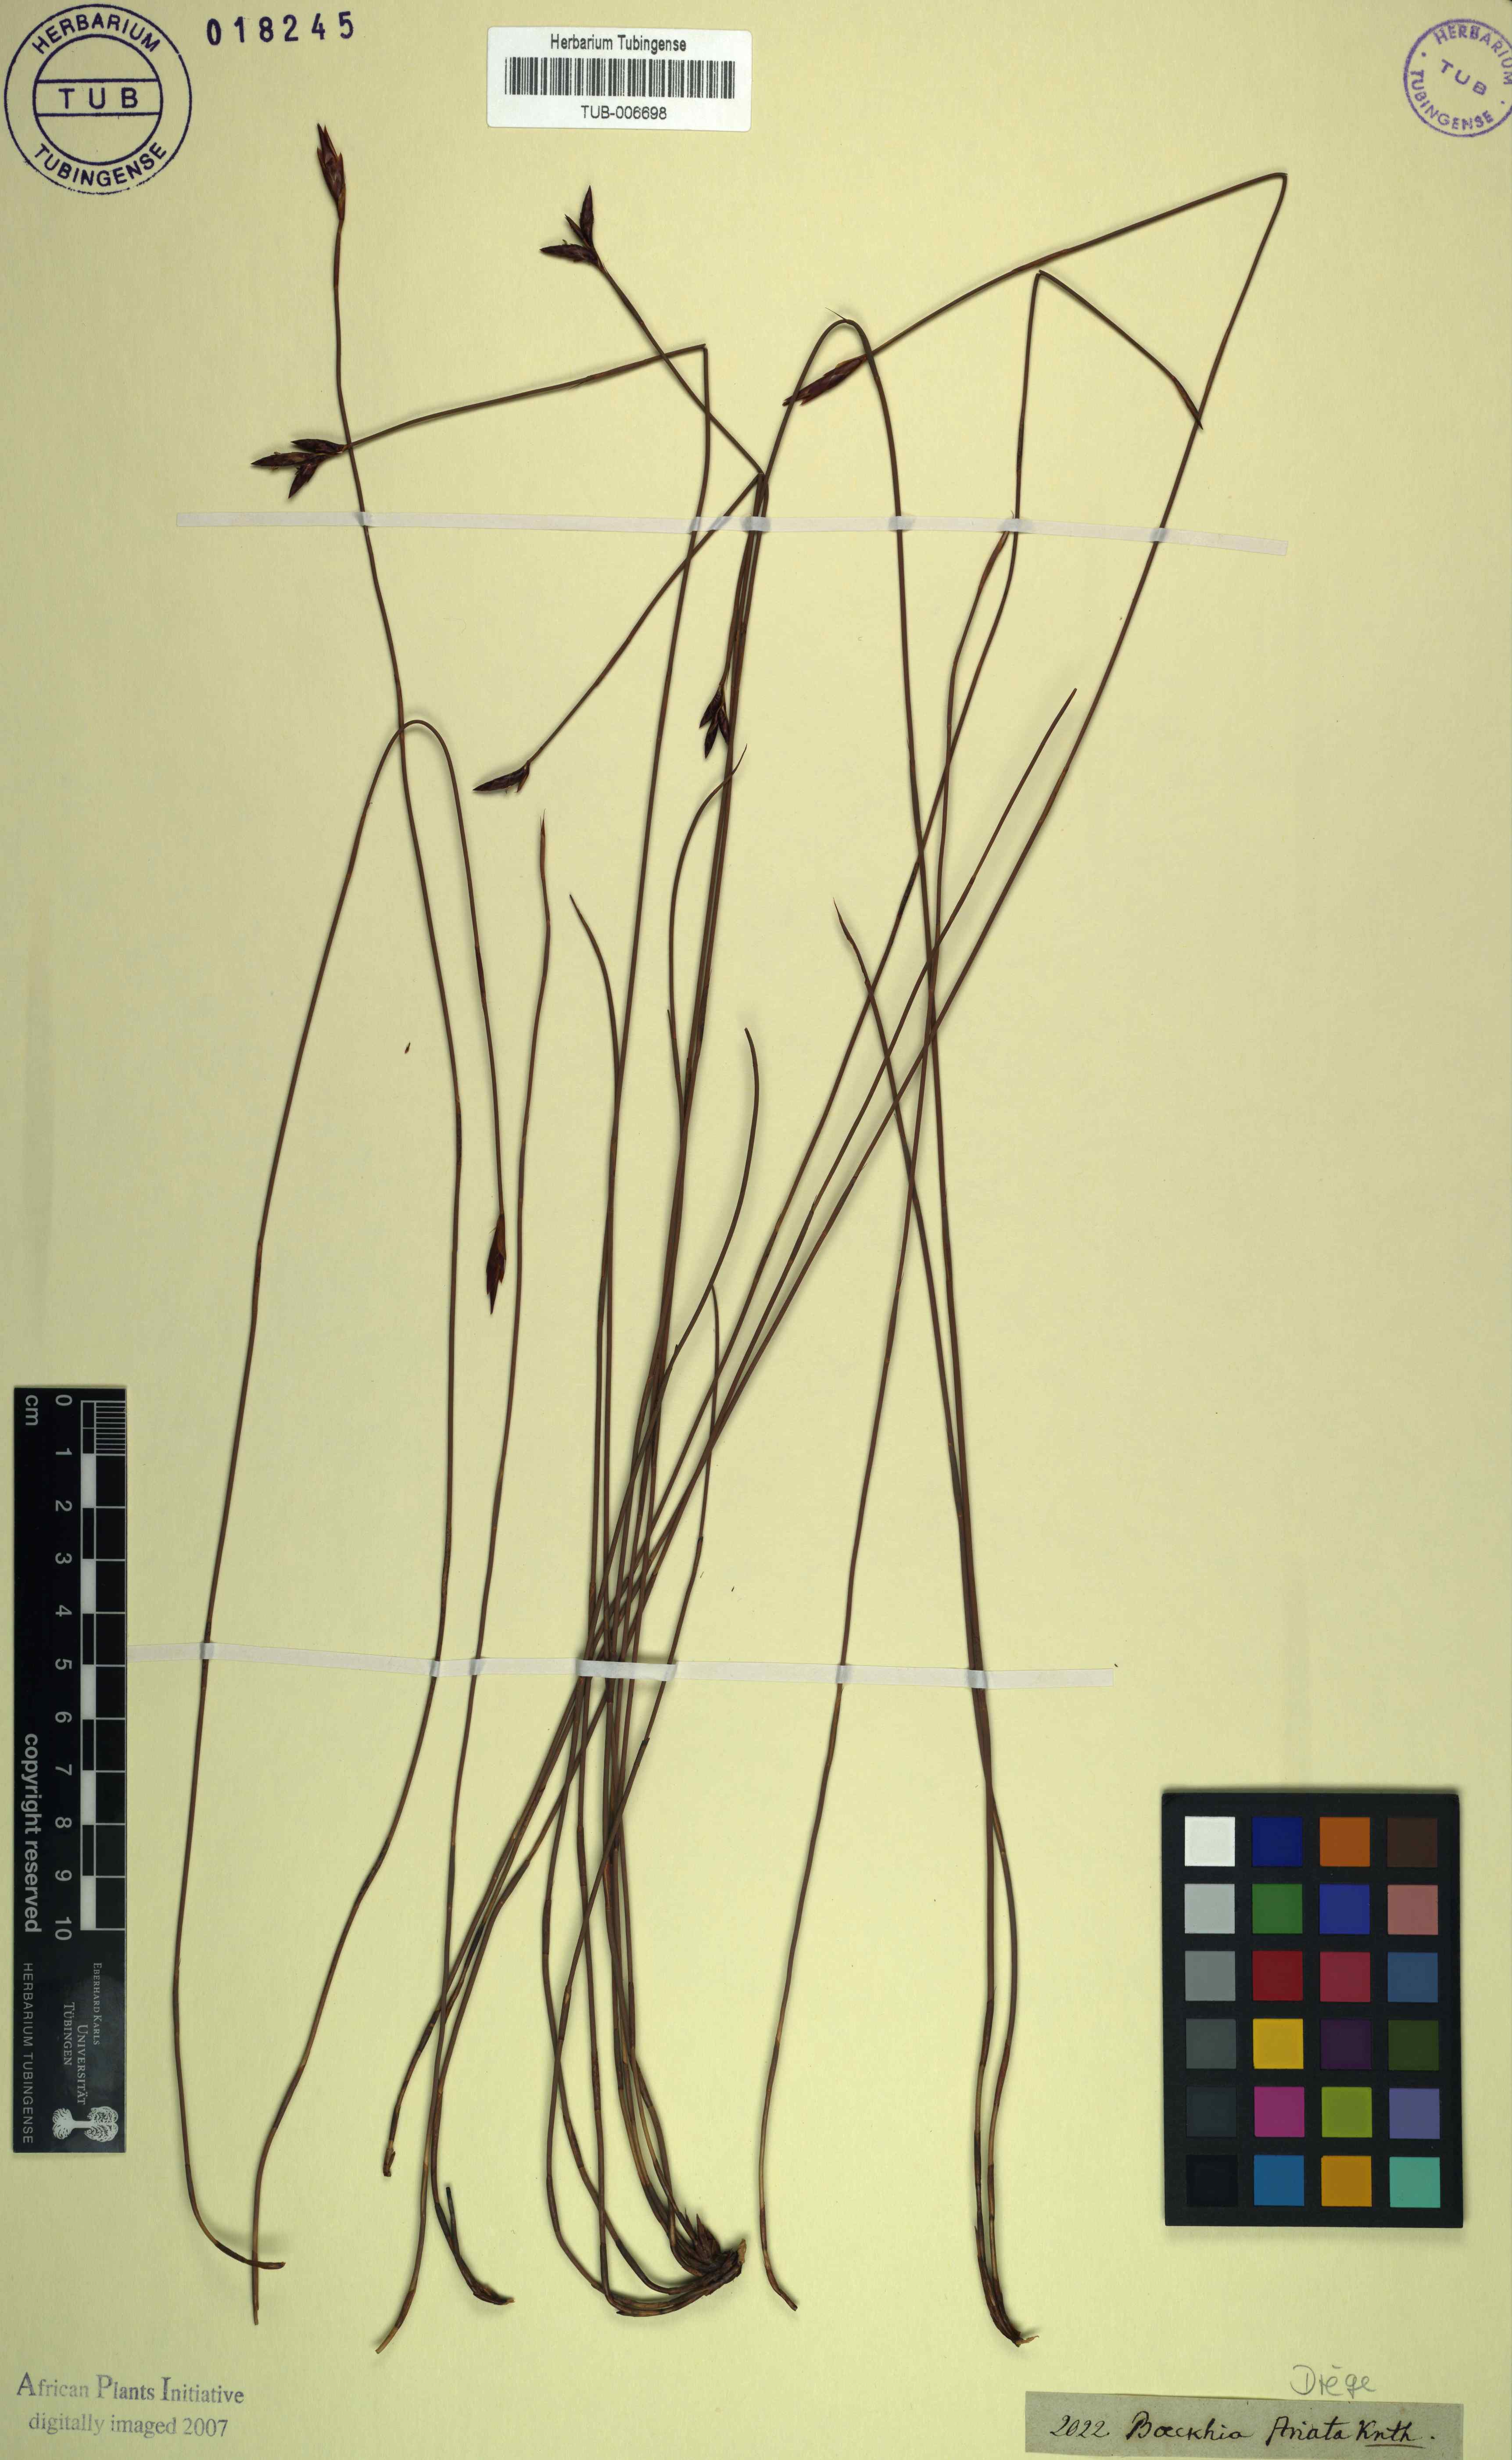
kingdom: Plantae
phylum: Tracheophyta
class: Liliopsida
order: Poales
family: Restionaceae
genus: Hypodiscus
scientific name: Hypodiscus striatus
